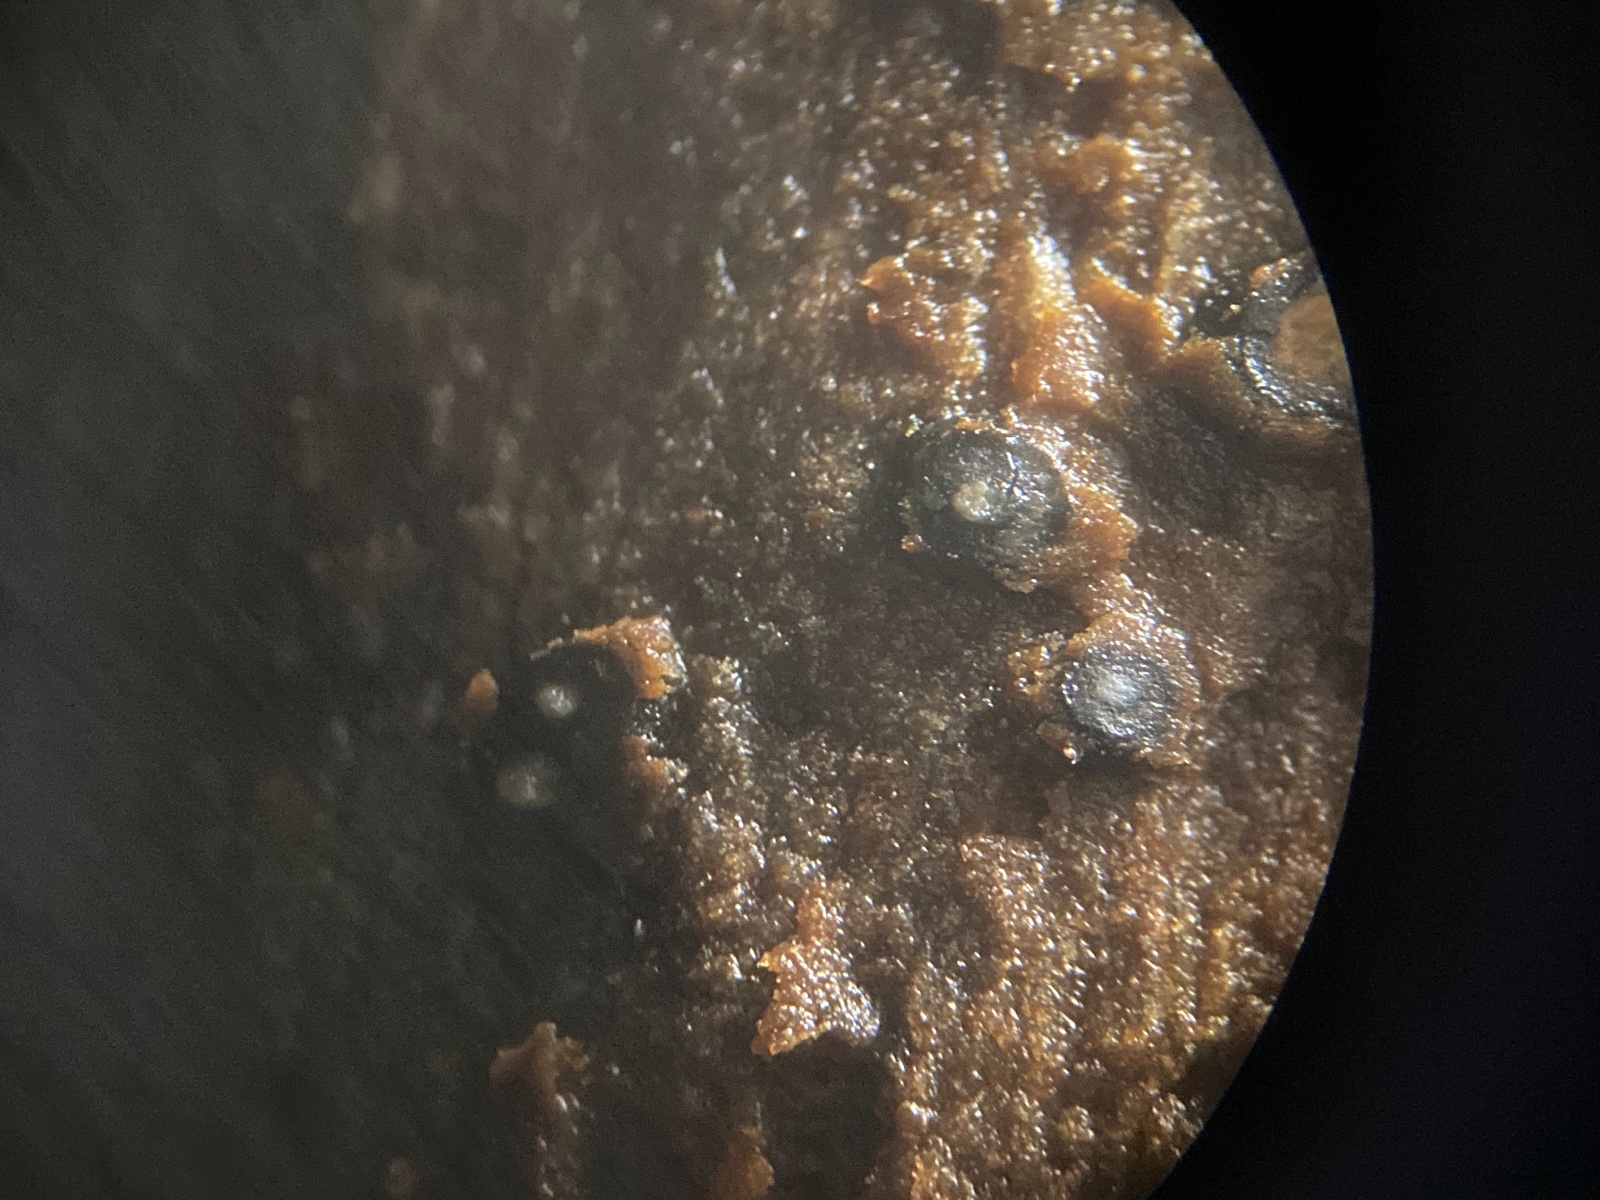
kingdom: Fungi
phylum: Ascomycota
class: Sordariomycetes
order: Diaporthales
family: Lamproconiaceae
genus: Hercospora
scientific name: Hercospora tiliae
